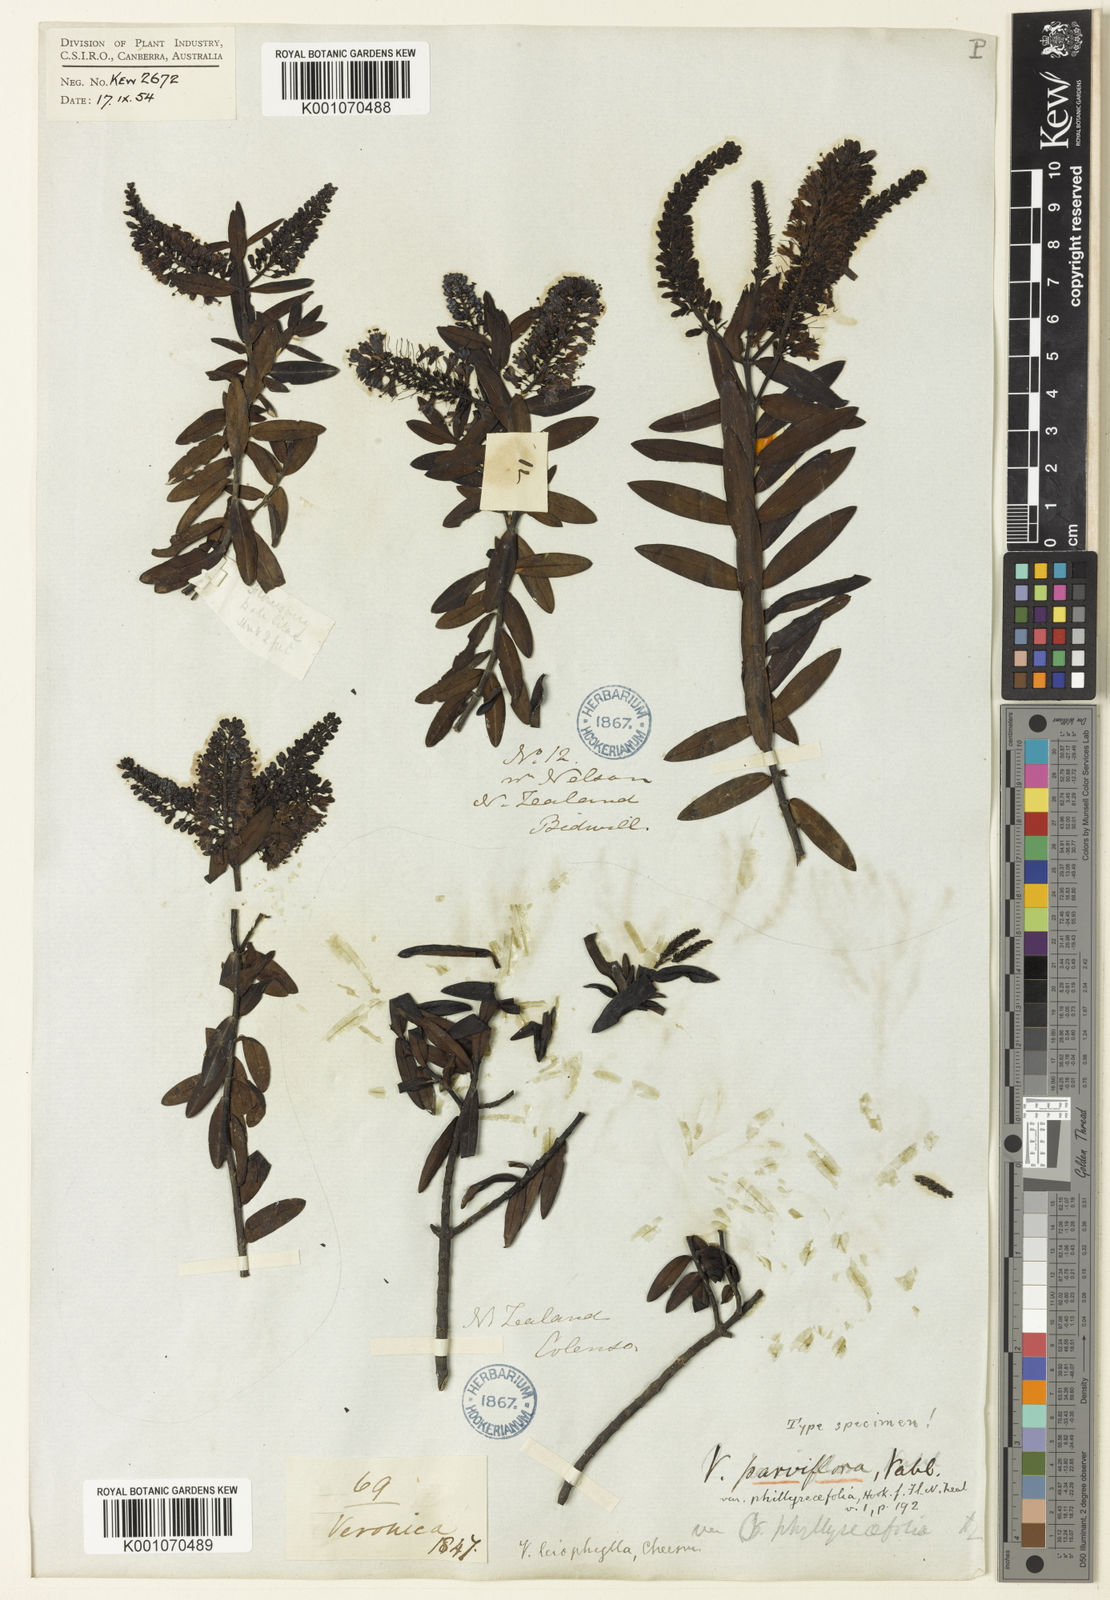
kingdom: Plantae
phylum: Tracheophyta
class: Magnoliopsida
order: Lamiales
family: Plantaginaceae
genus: Veronica
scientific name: Veronica leiophylla
